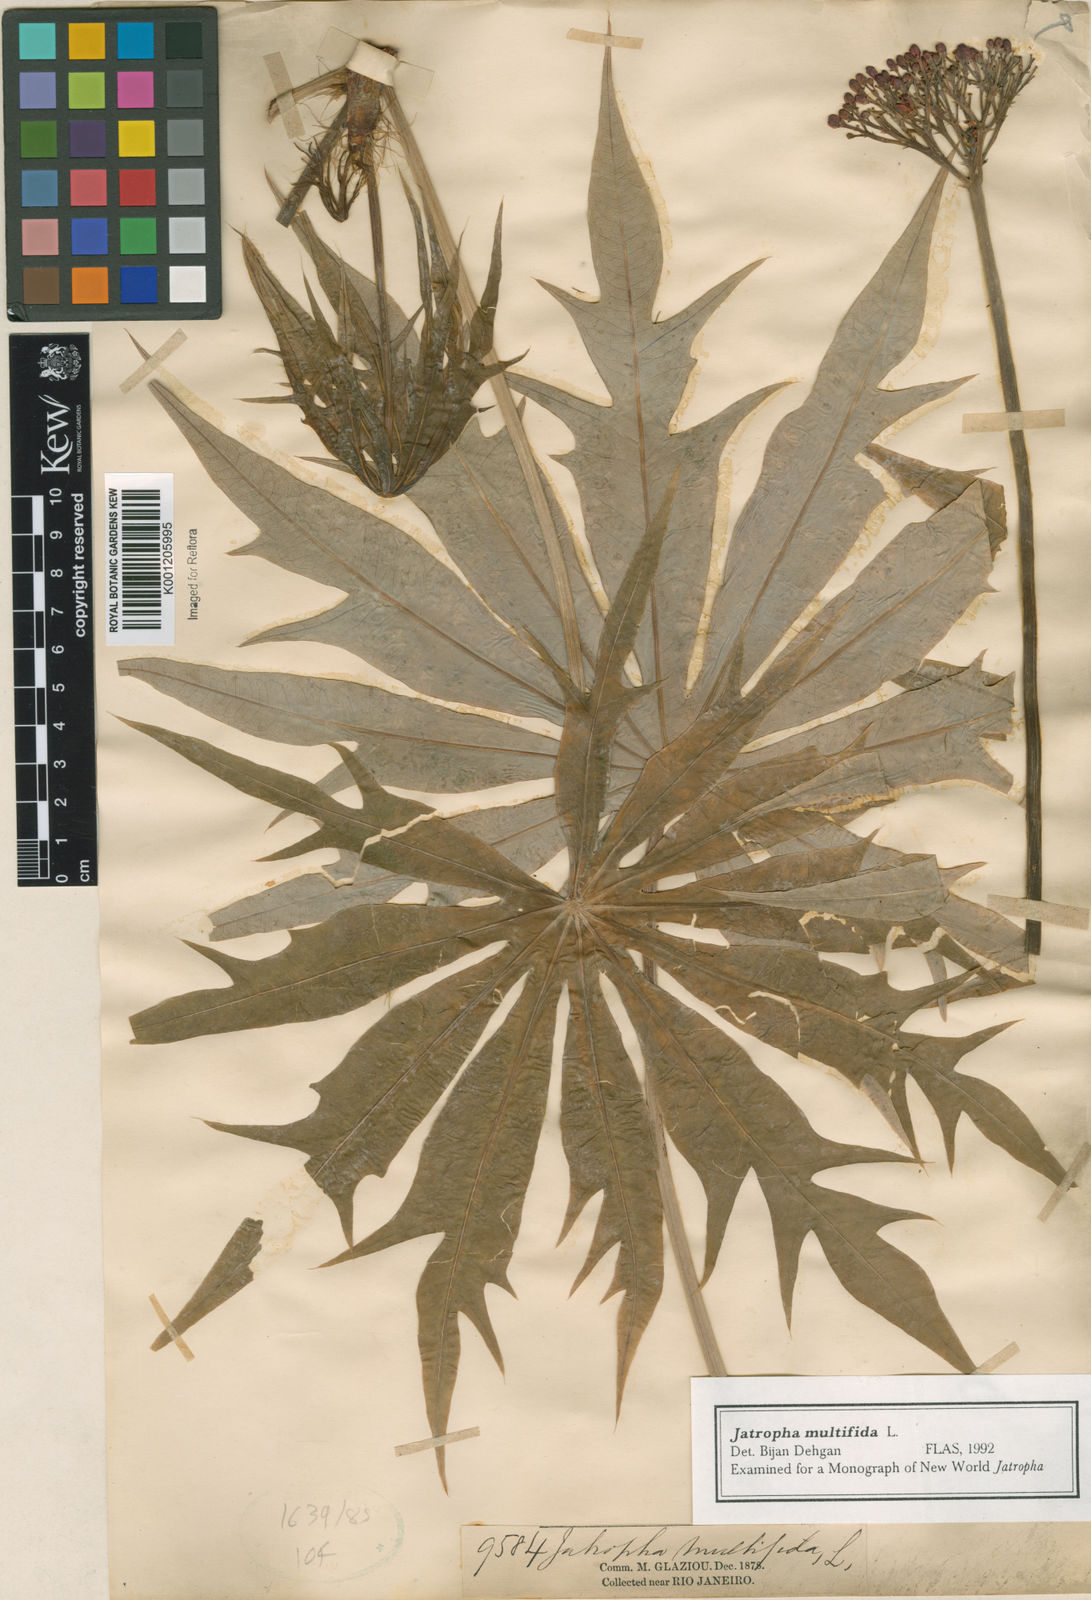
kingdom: Plantae
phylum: Tracheophyta
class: Magnoliopsida
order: Malpighiales
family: Euphorbiaceae
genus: Jatropha
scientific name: Jatropha multifida
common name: Coralbush
